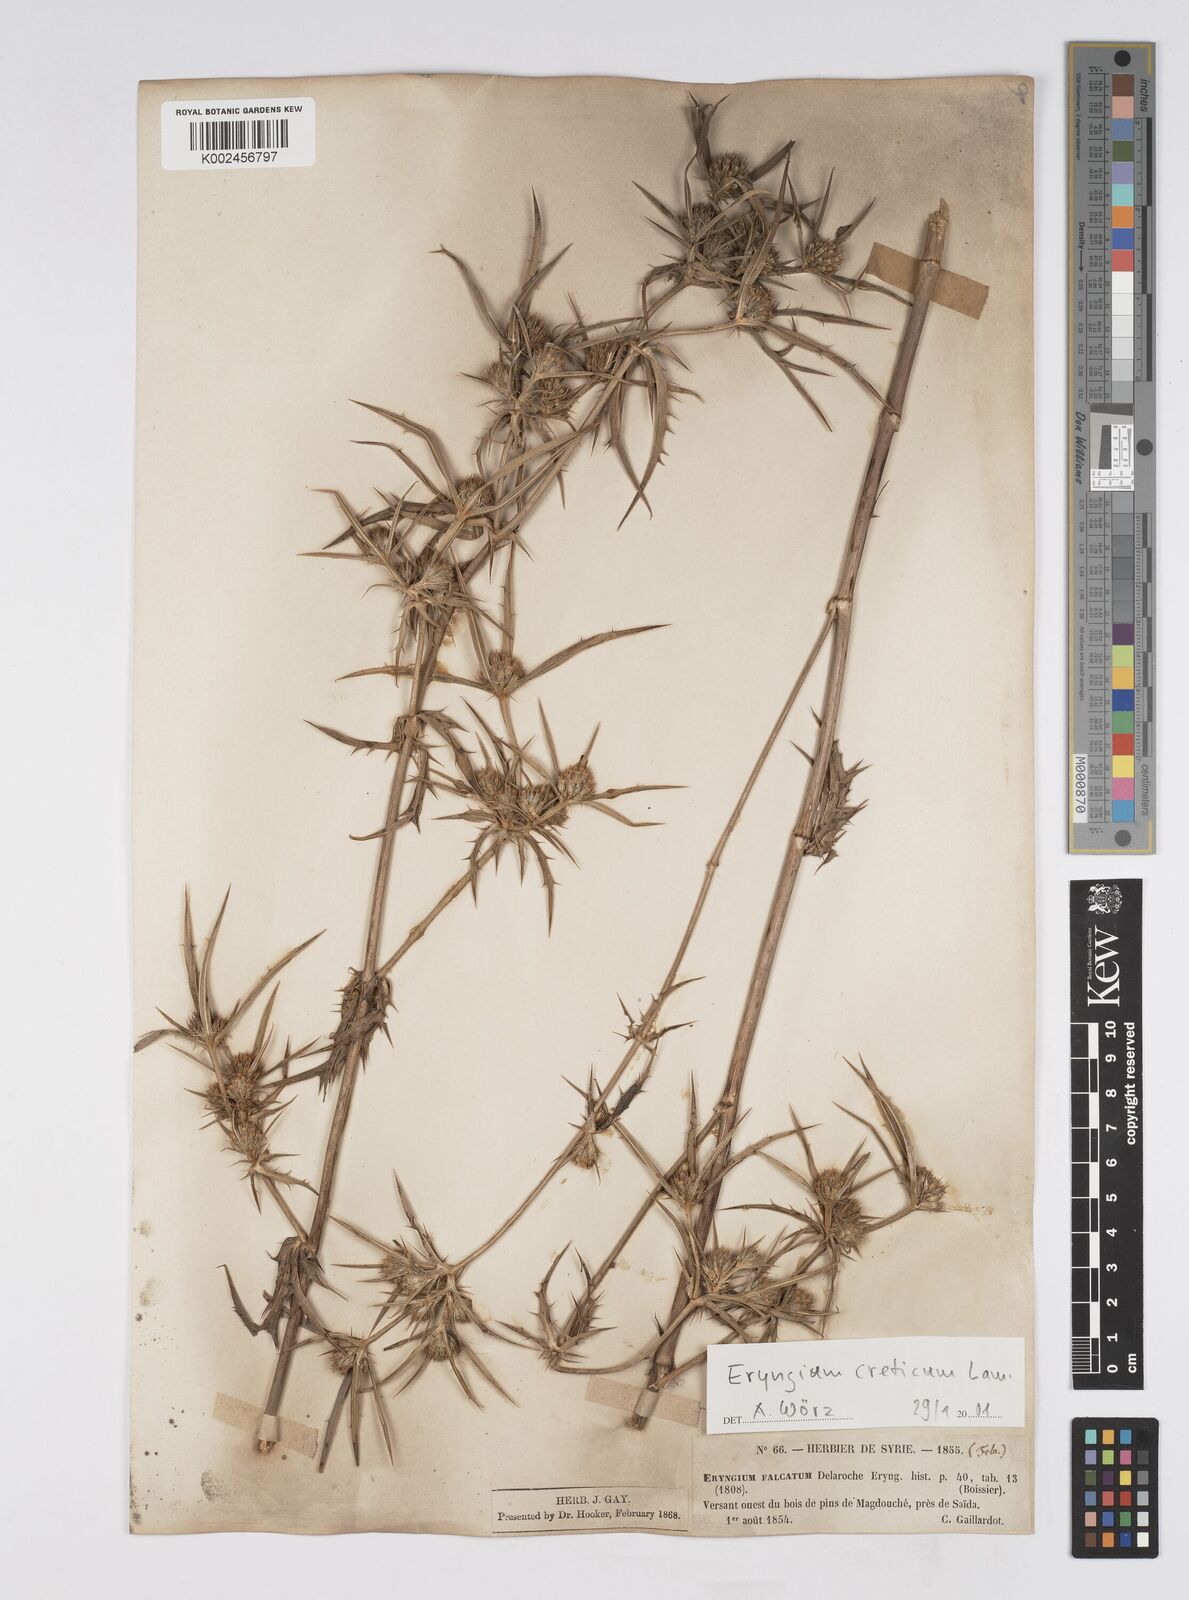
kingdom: Plantae
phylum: Tracheophyta
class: Magnoliopsida
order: Apiales
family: Apiaceae
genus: Eryngium
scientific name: Eryngium creticum
